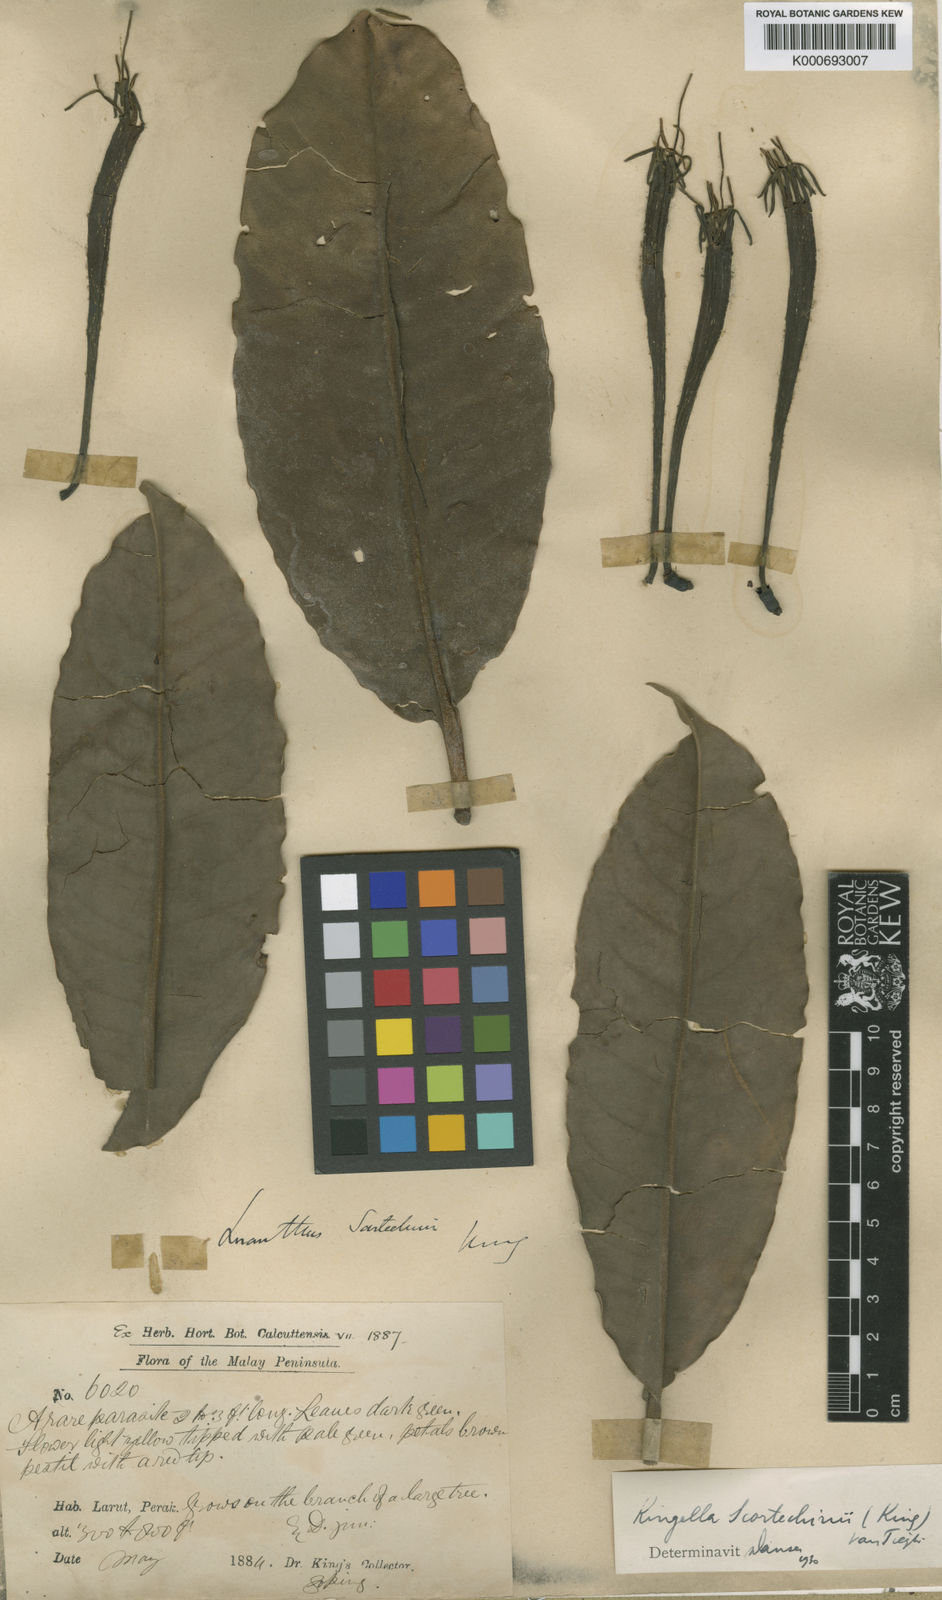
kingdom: Plantae
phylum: Tracheophyta
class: Magnoliopsida
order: Santalales
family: Loranthaceae
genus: Trithecanthera
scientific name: Trithecanthera scortechinii
